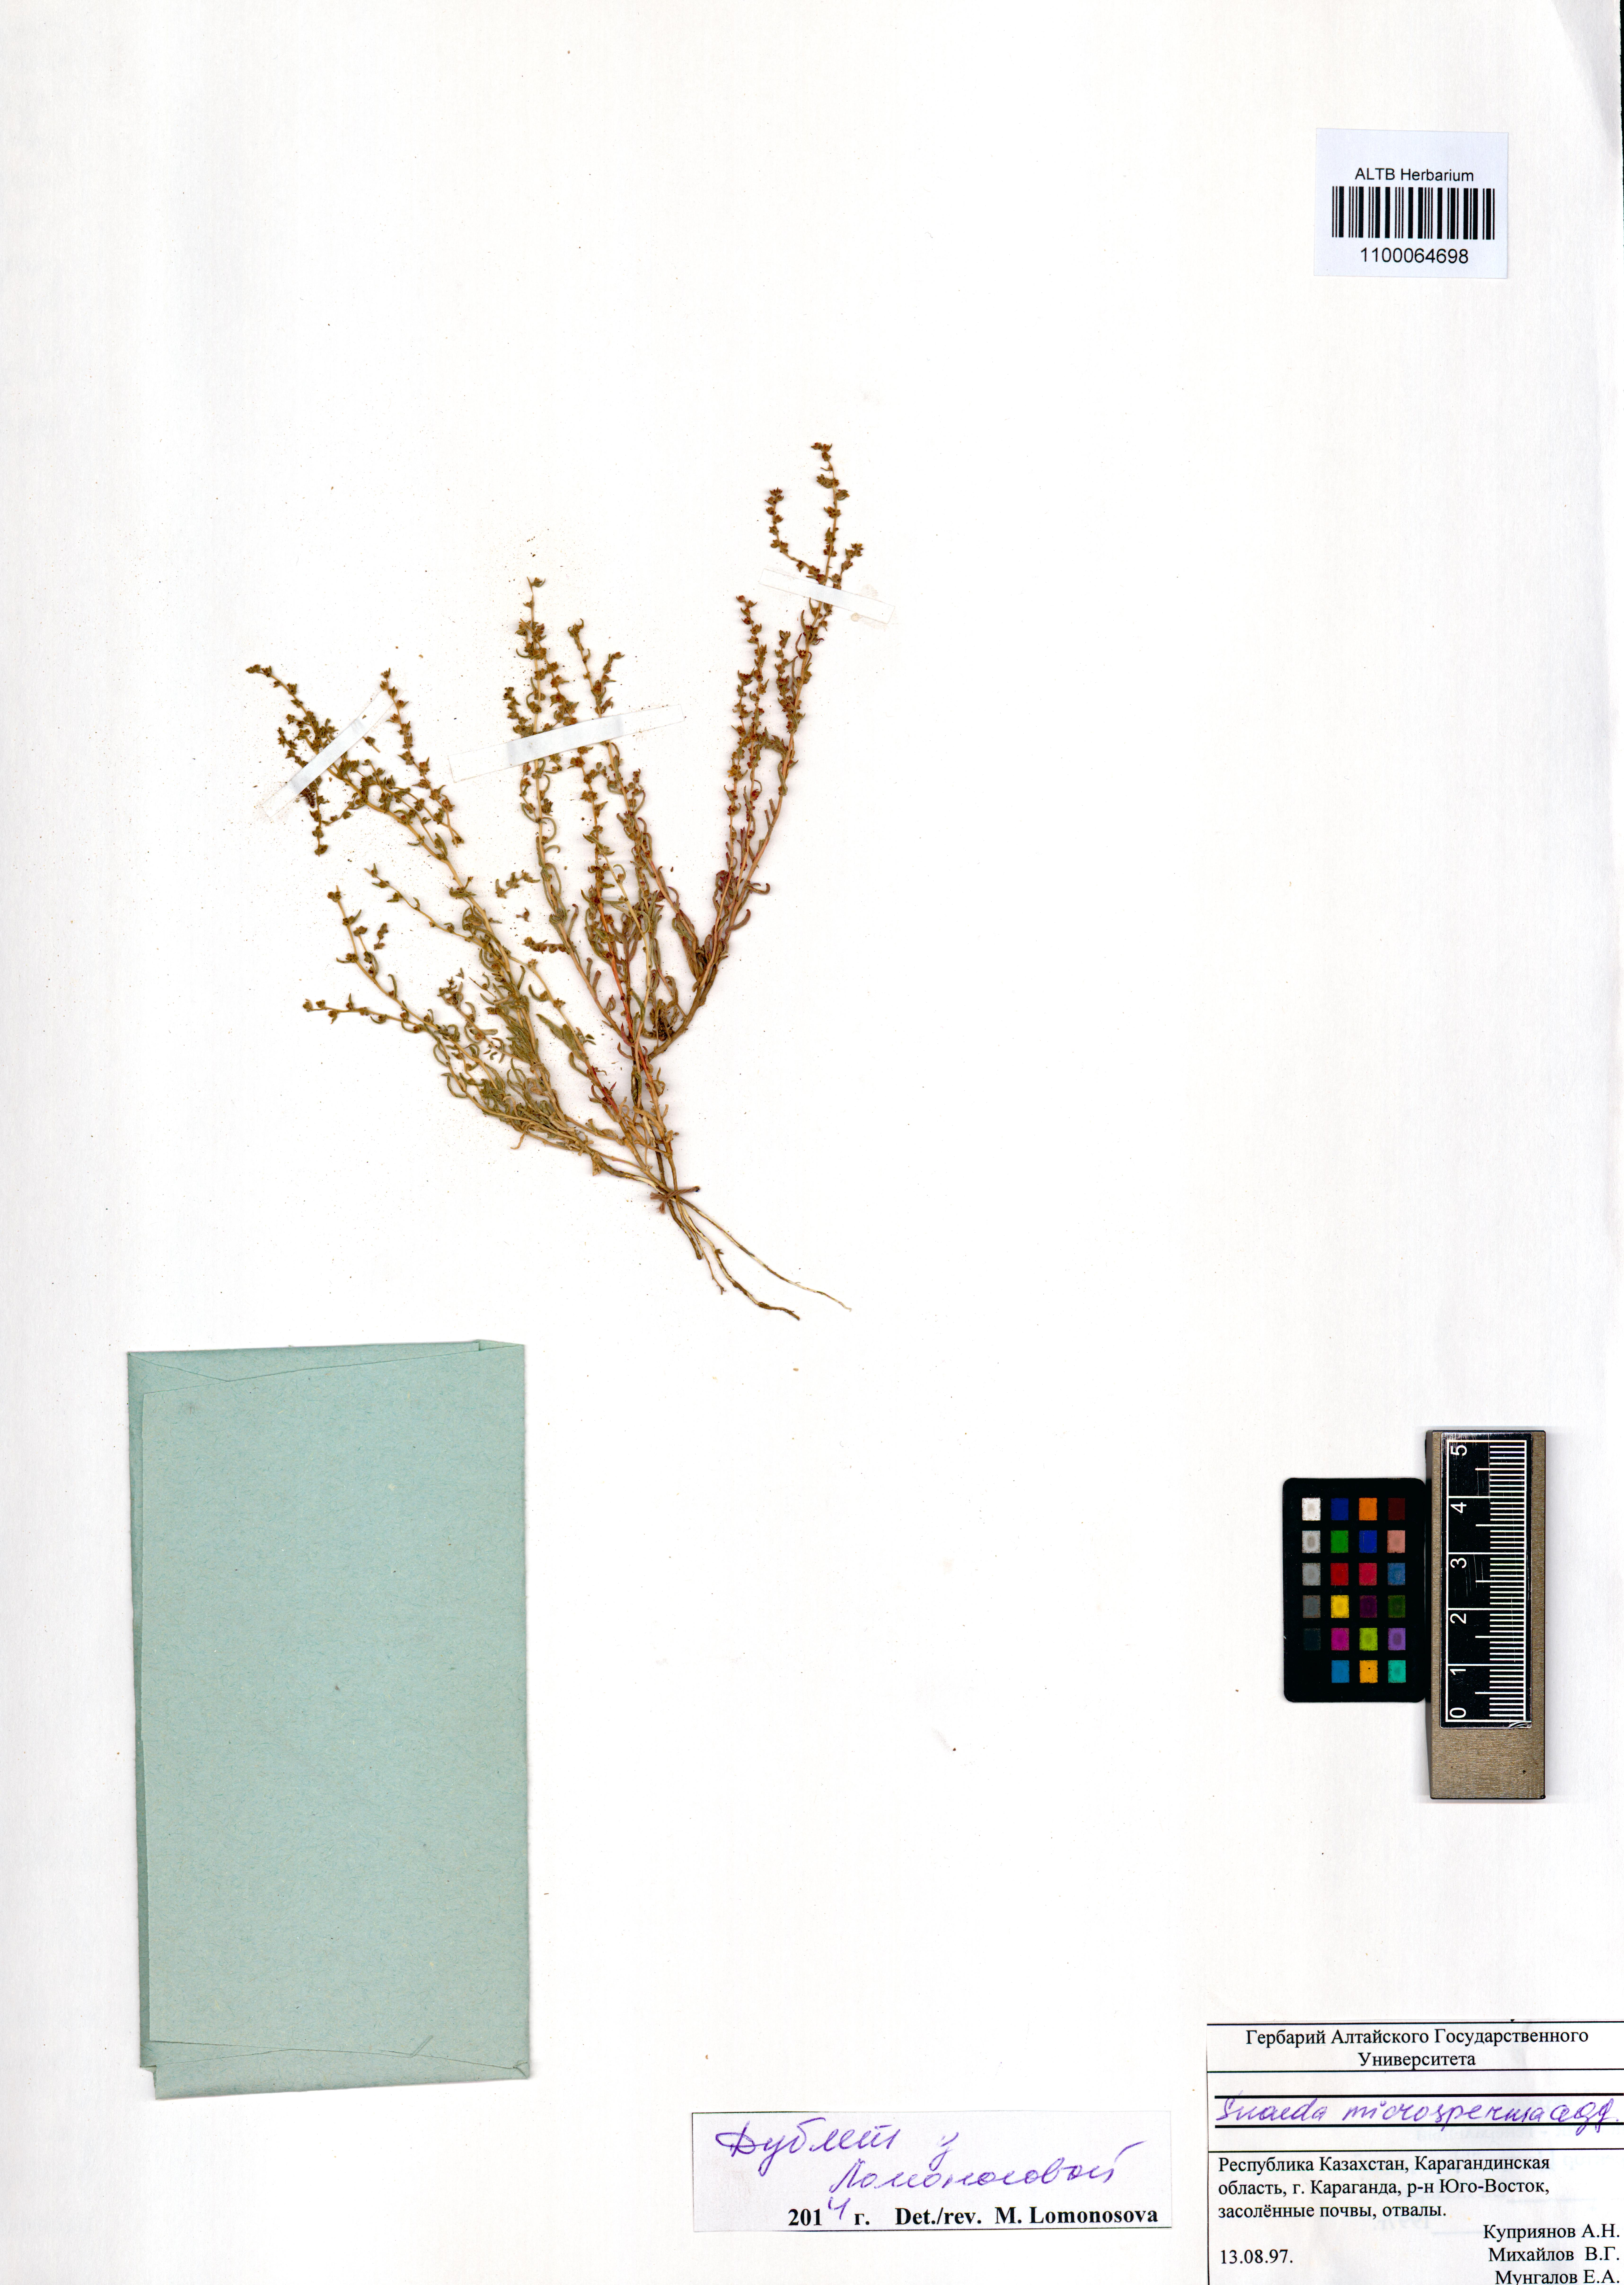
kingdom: Plantae
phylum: Tracheophyta
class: Magnoliopsida
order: Caryophyllales
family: Amaranthaceae
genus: Suaeda
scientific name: Suaeda microsperma
